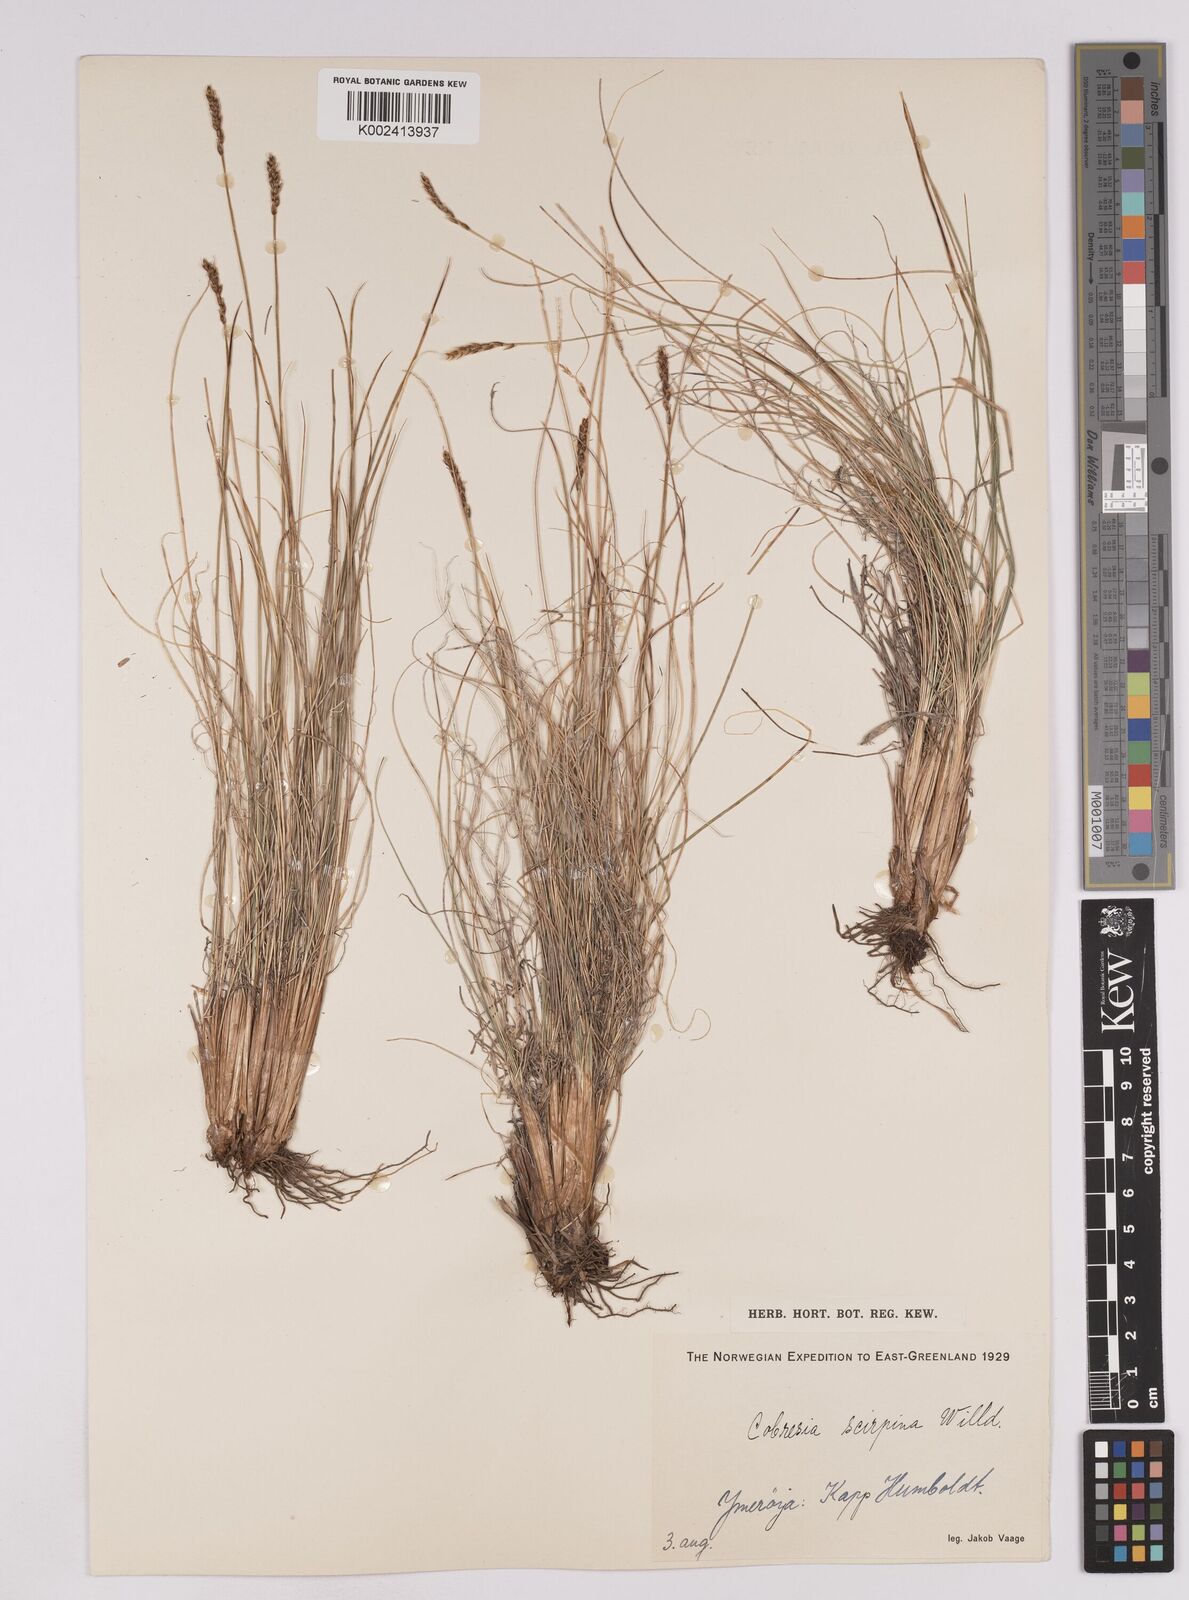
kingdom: Plantae
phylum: Tracheophyta
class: Liliopsida
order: Poales
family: Cyperaceae
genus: Carex
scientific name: Carex myosuroides
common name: Bellard's bog sedge
